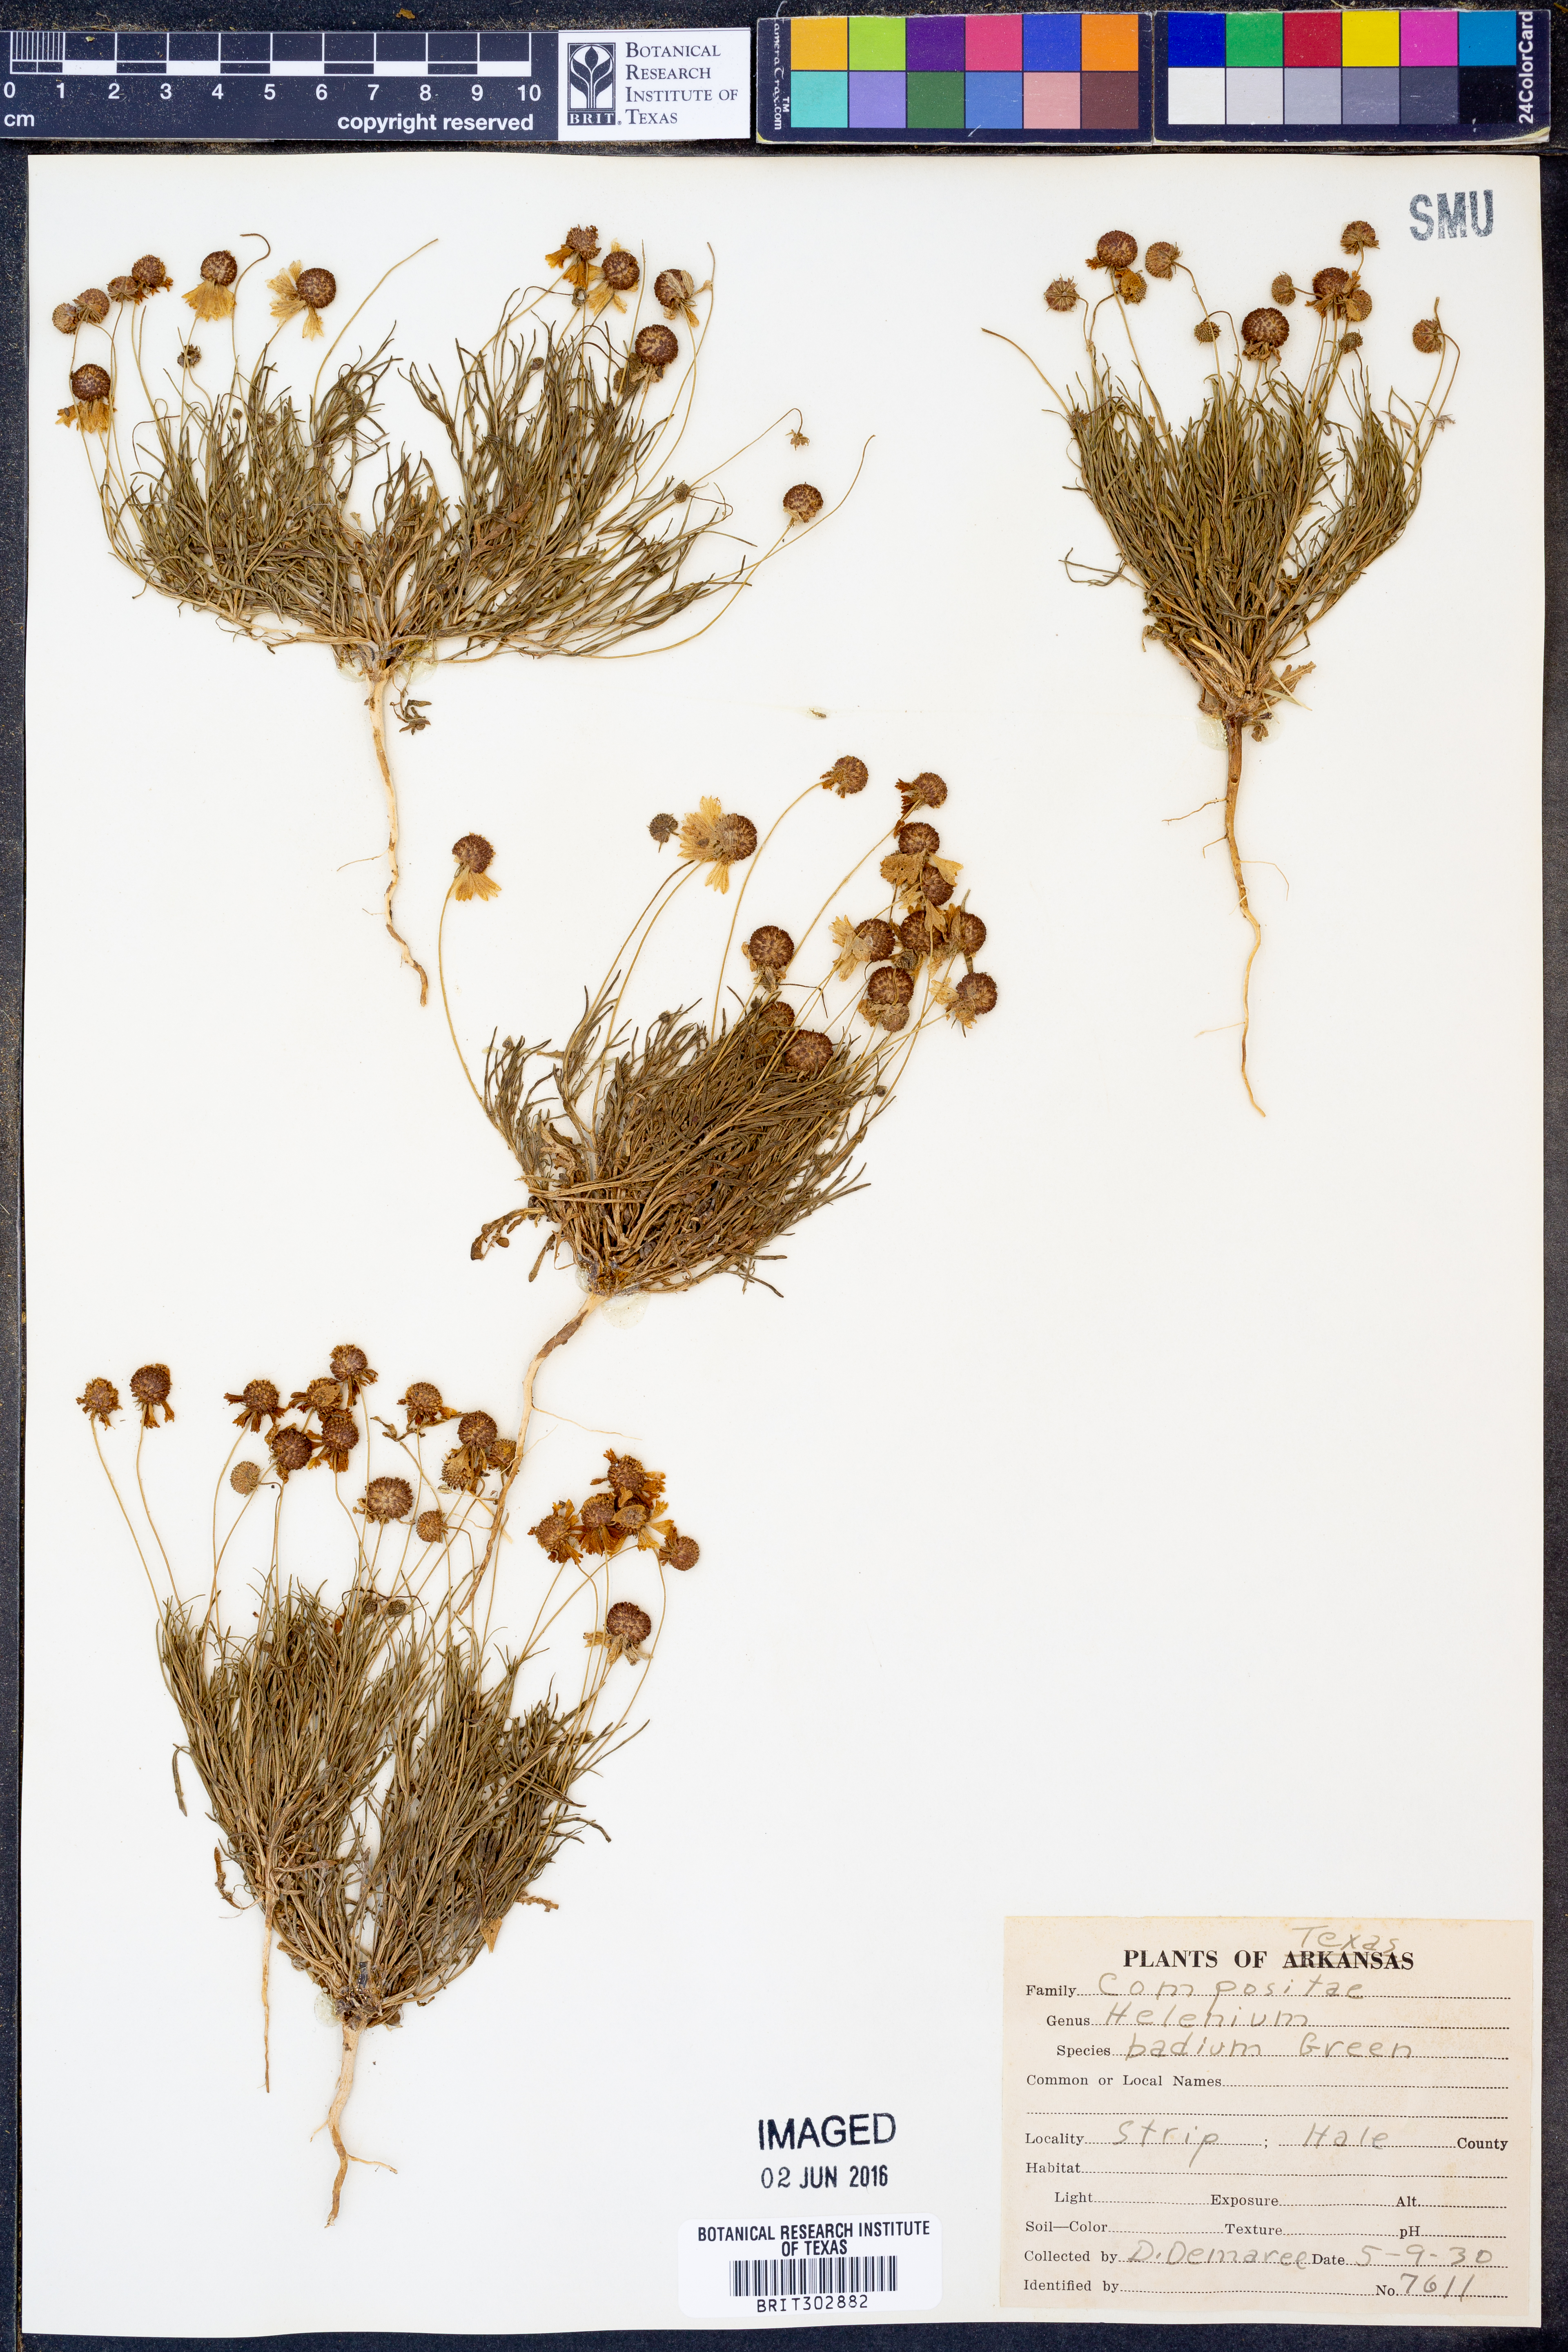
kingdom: Plantae
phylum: Tracheophyta
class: Magnoliopsida
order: Asterales
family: Asteraceae
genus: Helenium
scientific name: Helenium amarum
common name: Bitter sneezeweed
